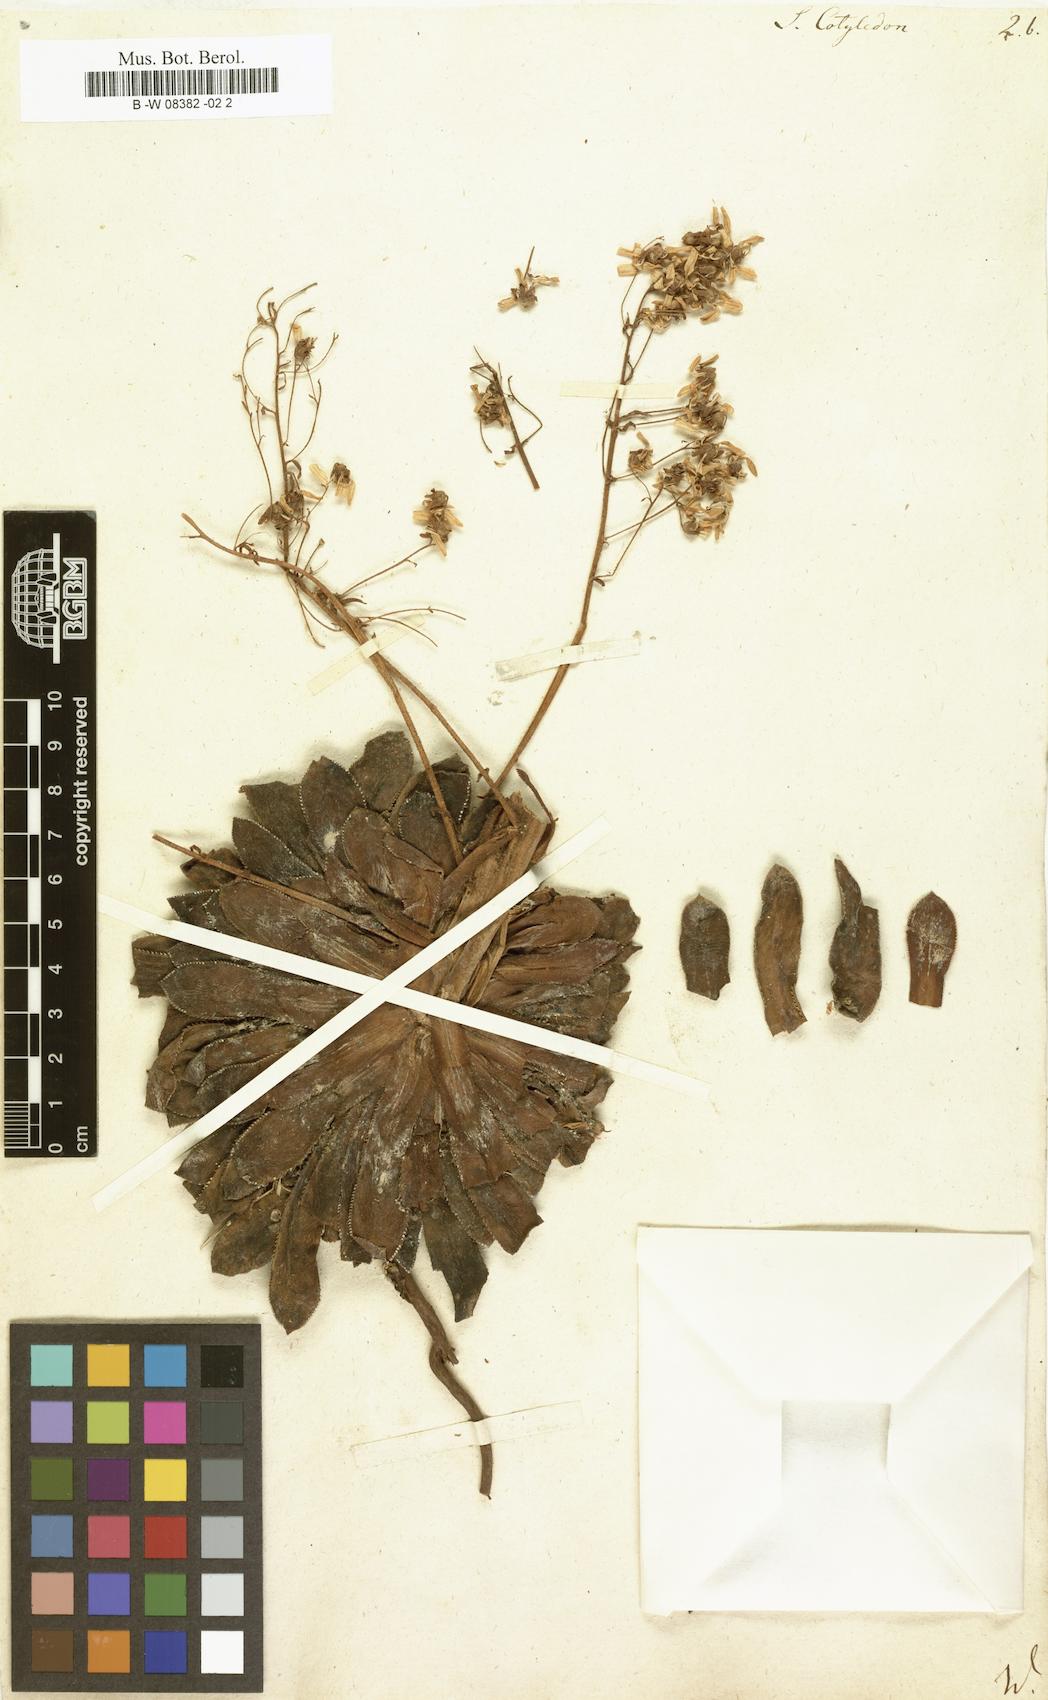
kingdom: Plantae
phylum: Tracheophyta
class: Magnoliopsida
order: Saxifragales
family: Saxifragaceae
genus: Saxifraga
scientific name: Saxifraga cotyledon
